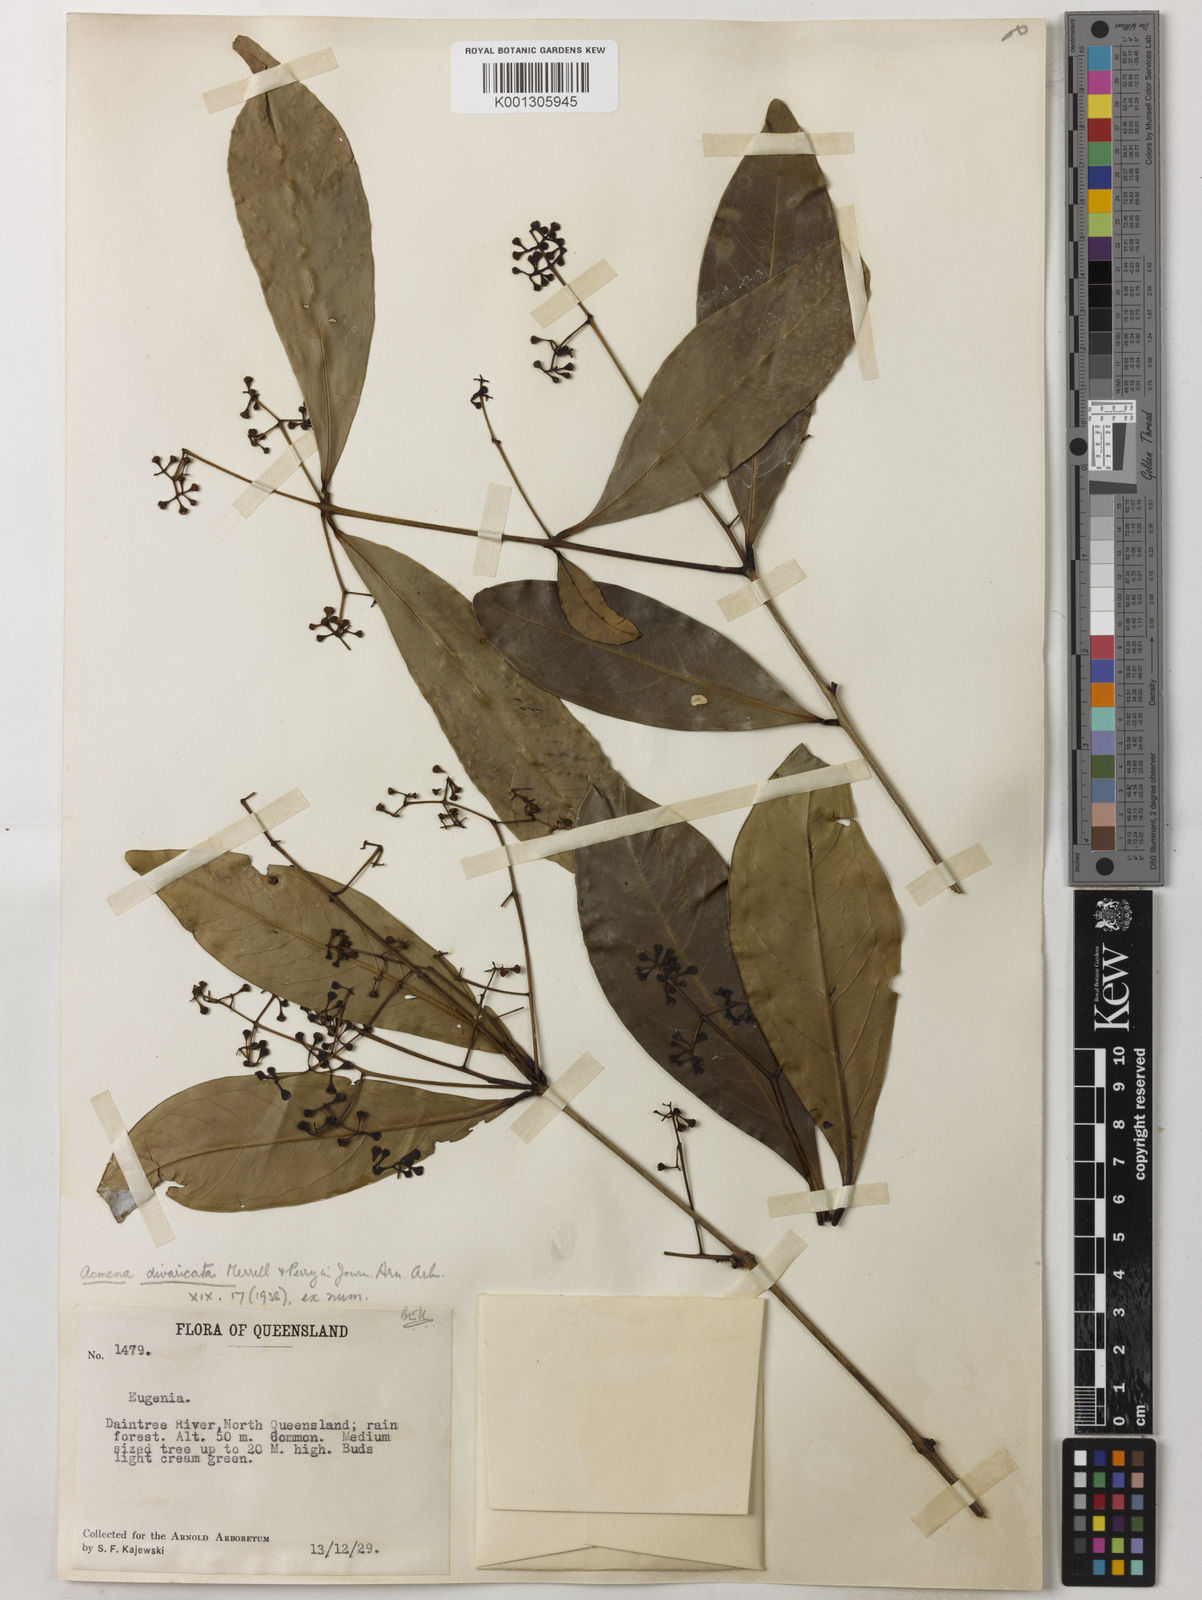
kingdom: Plantae
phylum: Tracheophyta
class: Magnoliopsida
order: Myrtales
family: Myrtaceae
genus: Syzygium
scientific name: Syzygium divaricatum
